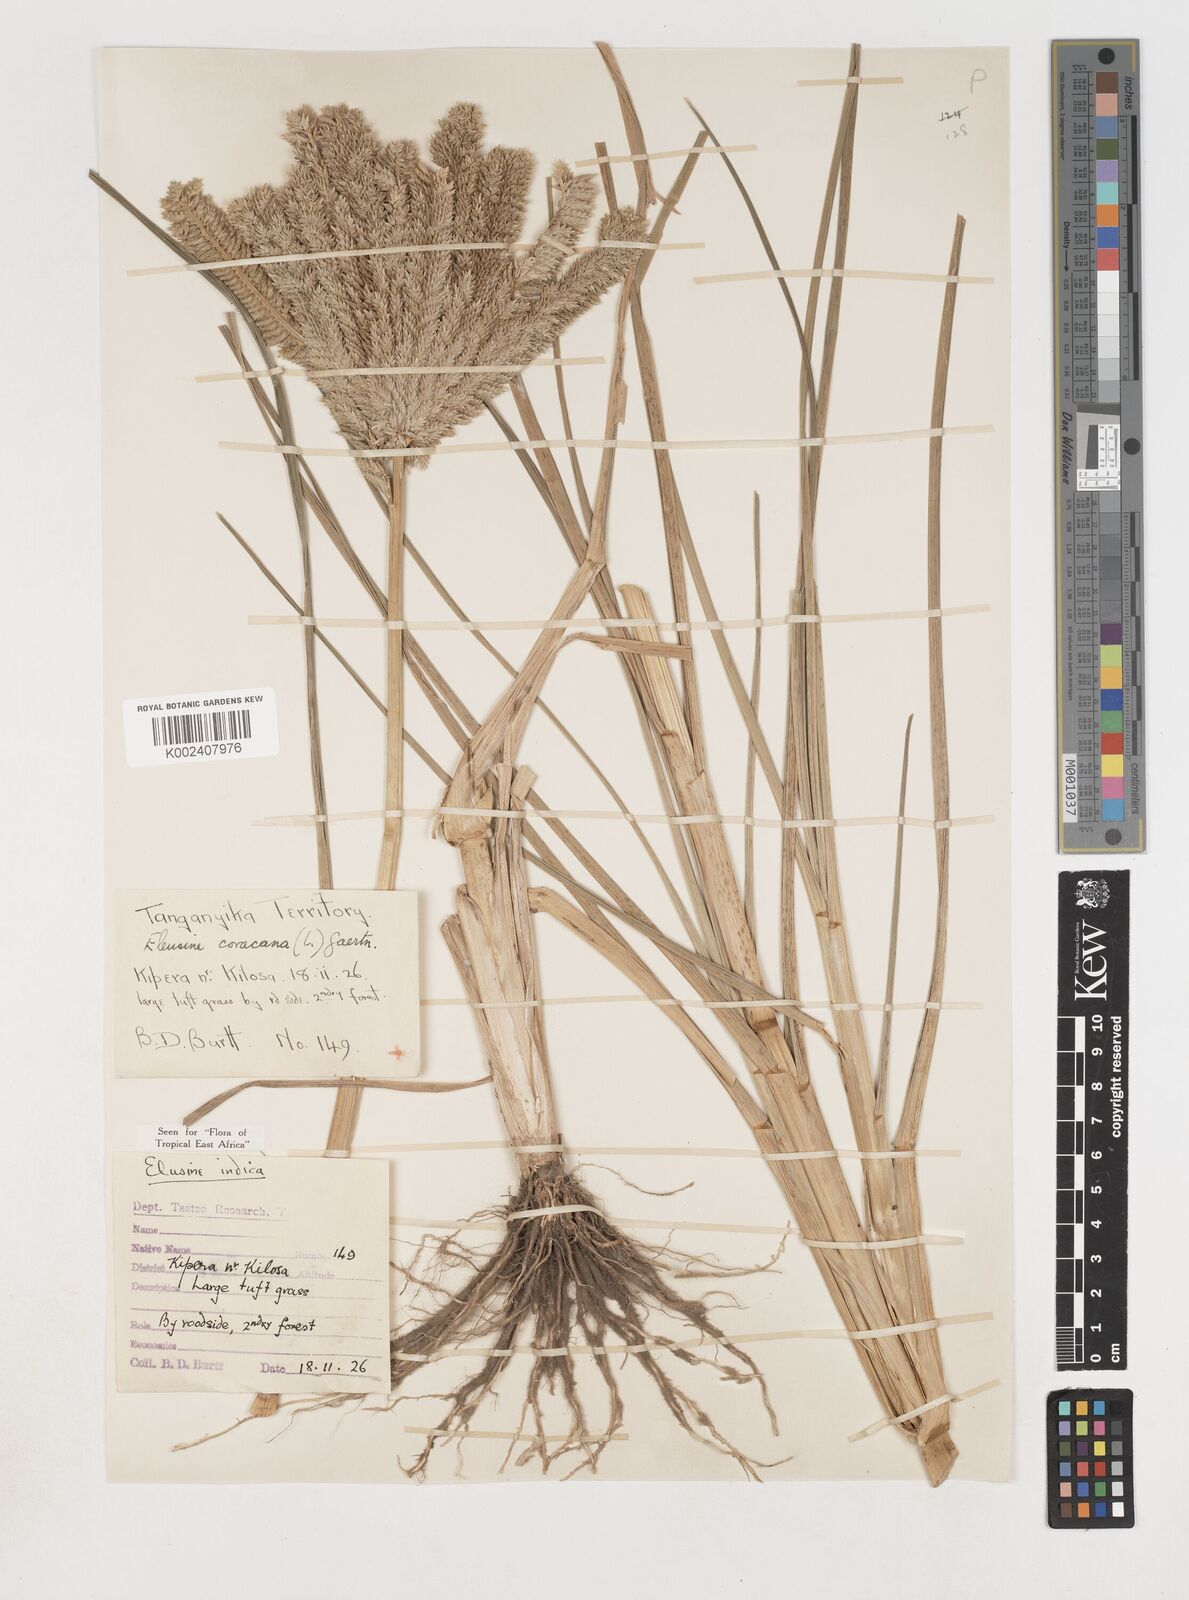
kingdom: Plantae
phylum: Tracheophyta
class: Liliopsida
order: Poales
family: Poaceae
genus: Eleusine
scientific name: Eleusine coracana
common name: Finger millet
